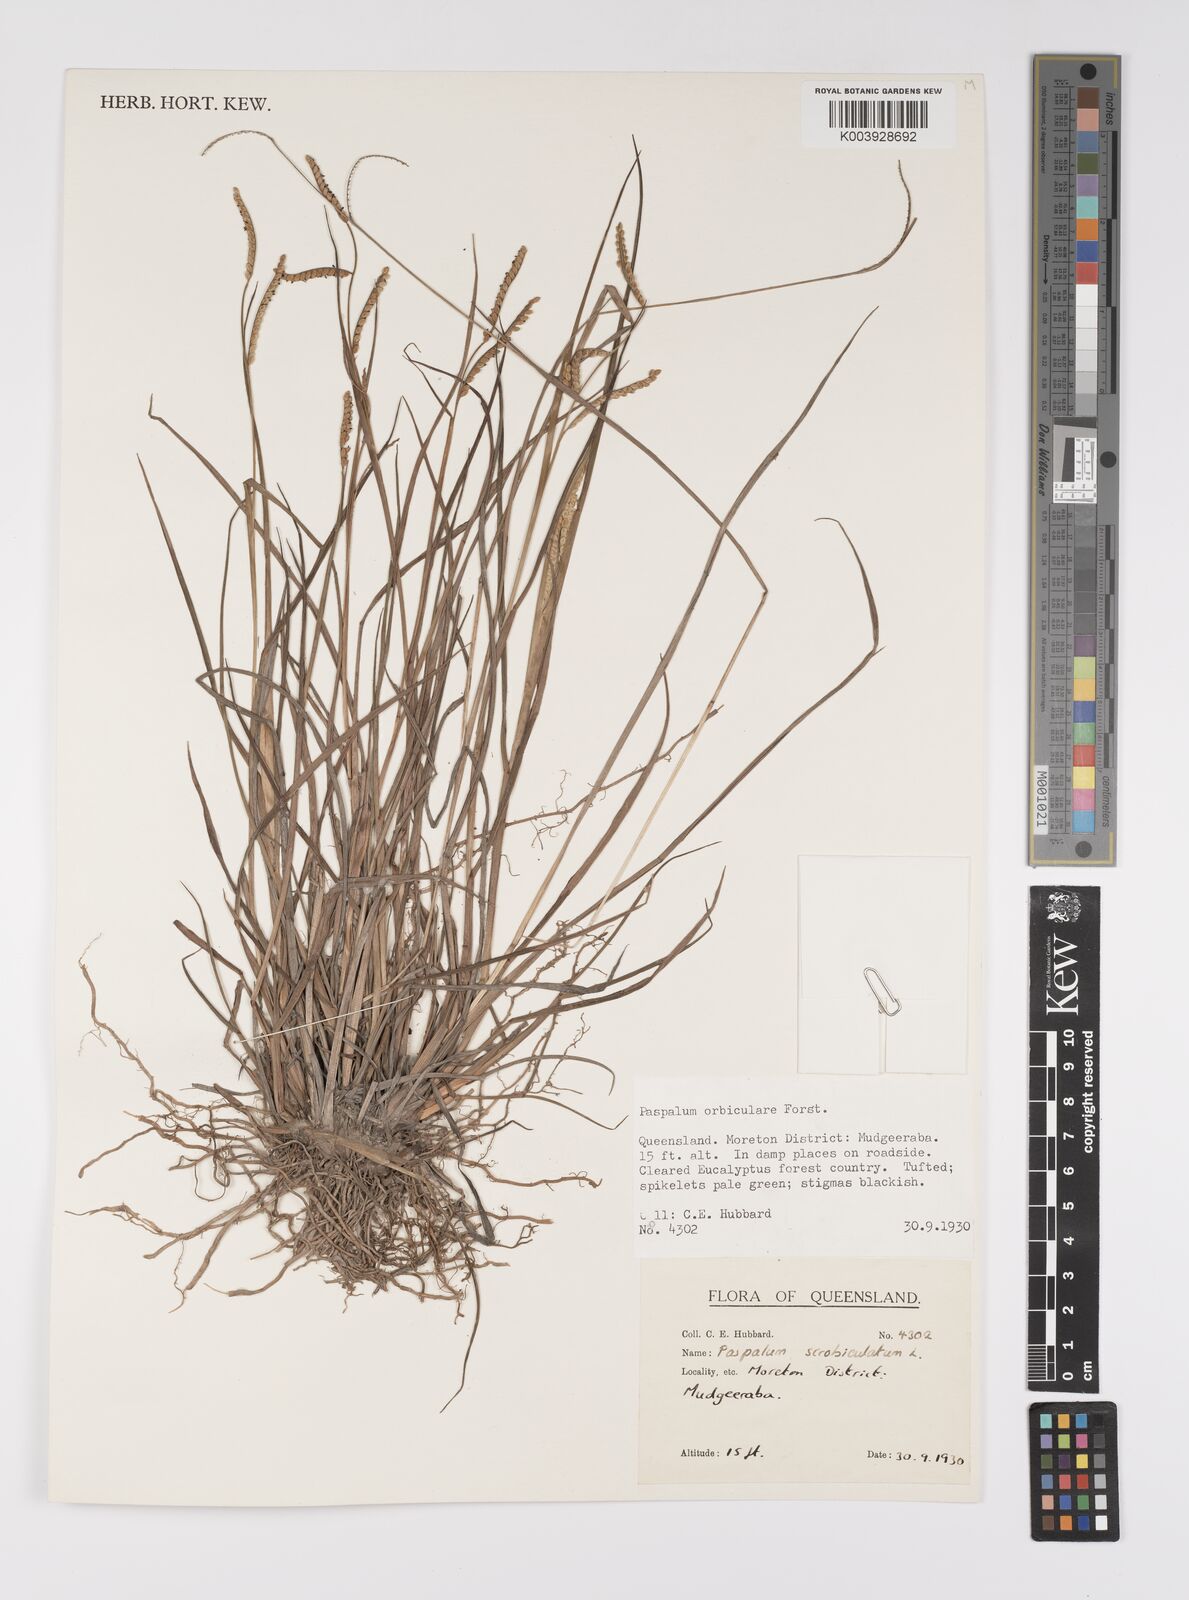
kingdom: Plantae
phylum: Tracheophyta
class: Liliopsida
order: Poales
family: Poaceae
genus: Paspalum
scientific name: Paspalum scrobiculatum
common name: Kodo millet
